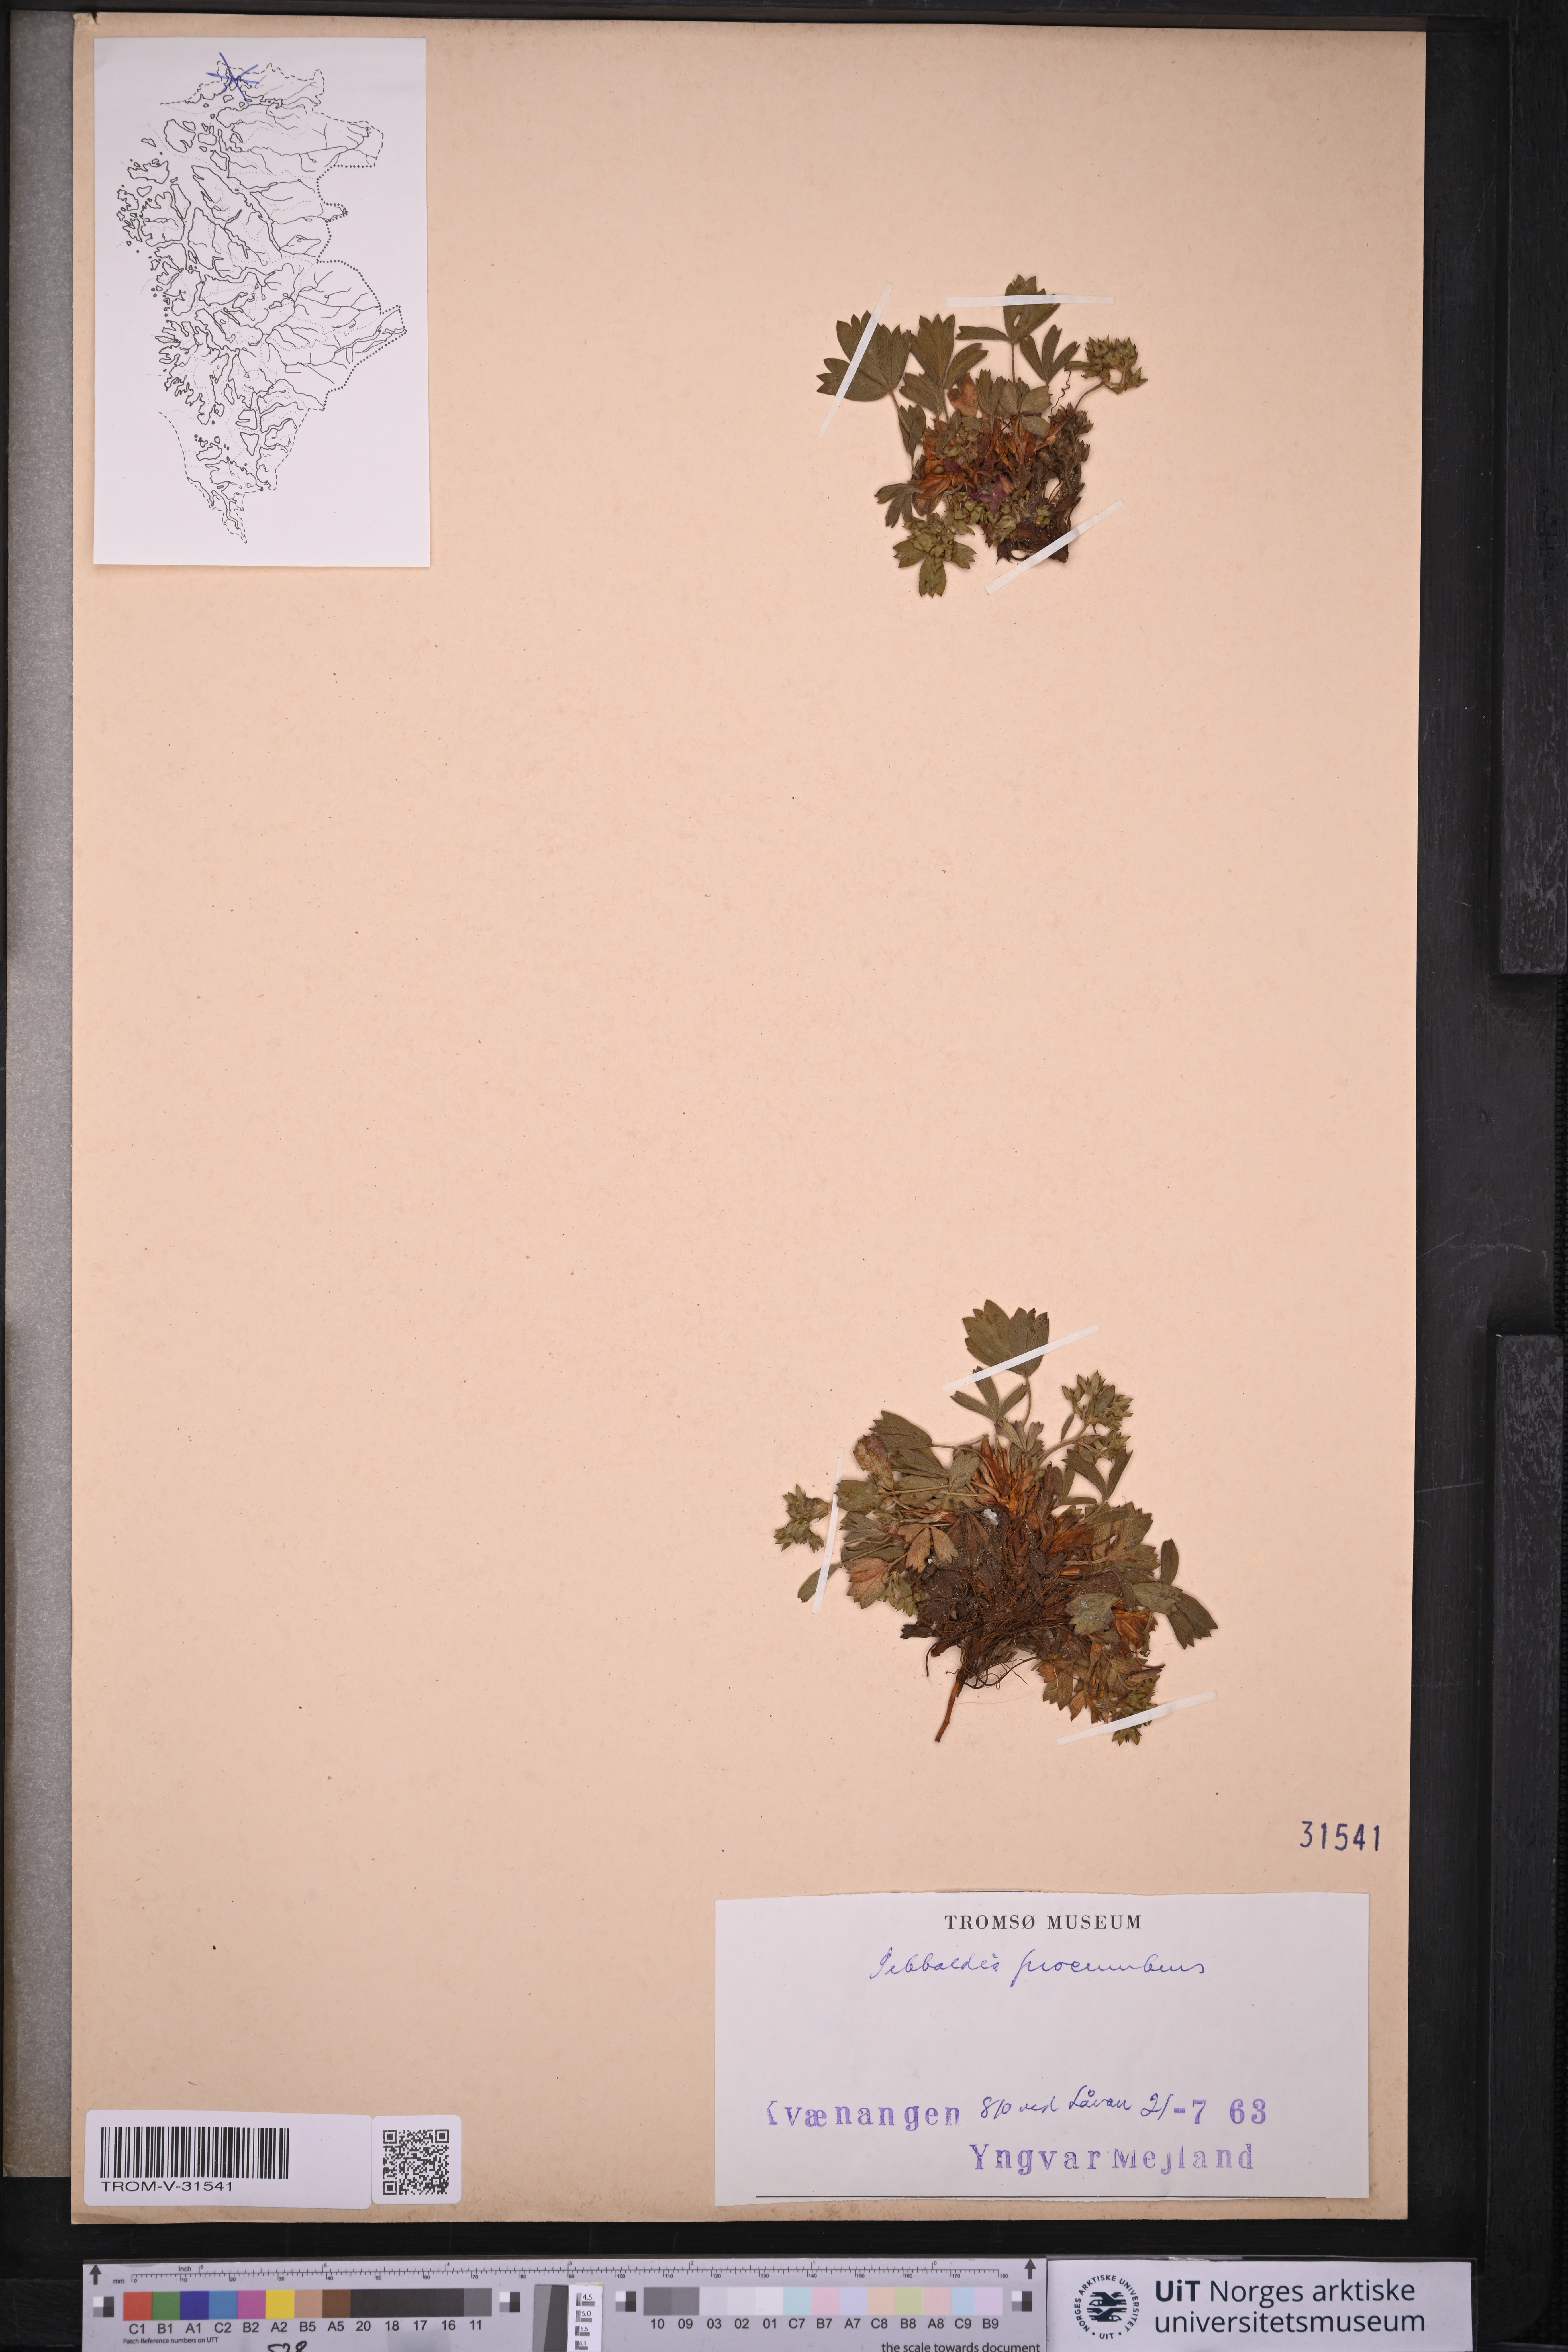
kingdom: Plantae
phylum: Tracheophyta
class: Magnoliopsida
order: Rosales
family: Rosaceae
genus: Sibbaldia
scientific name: Sibbaldia procumbens
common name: Creeping sibbaldia
